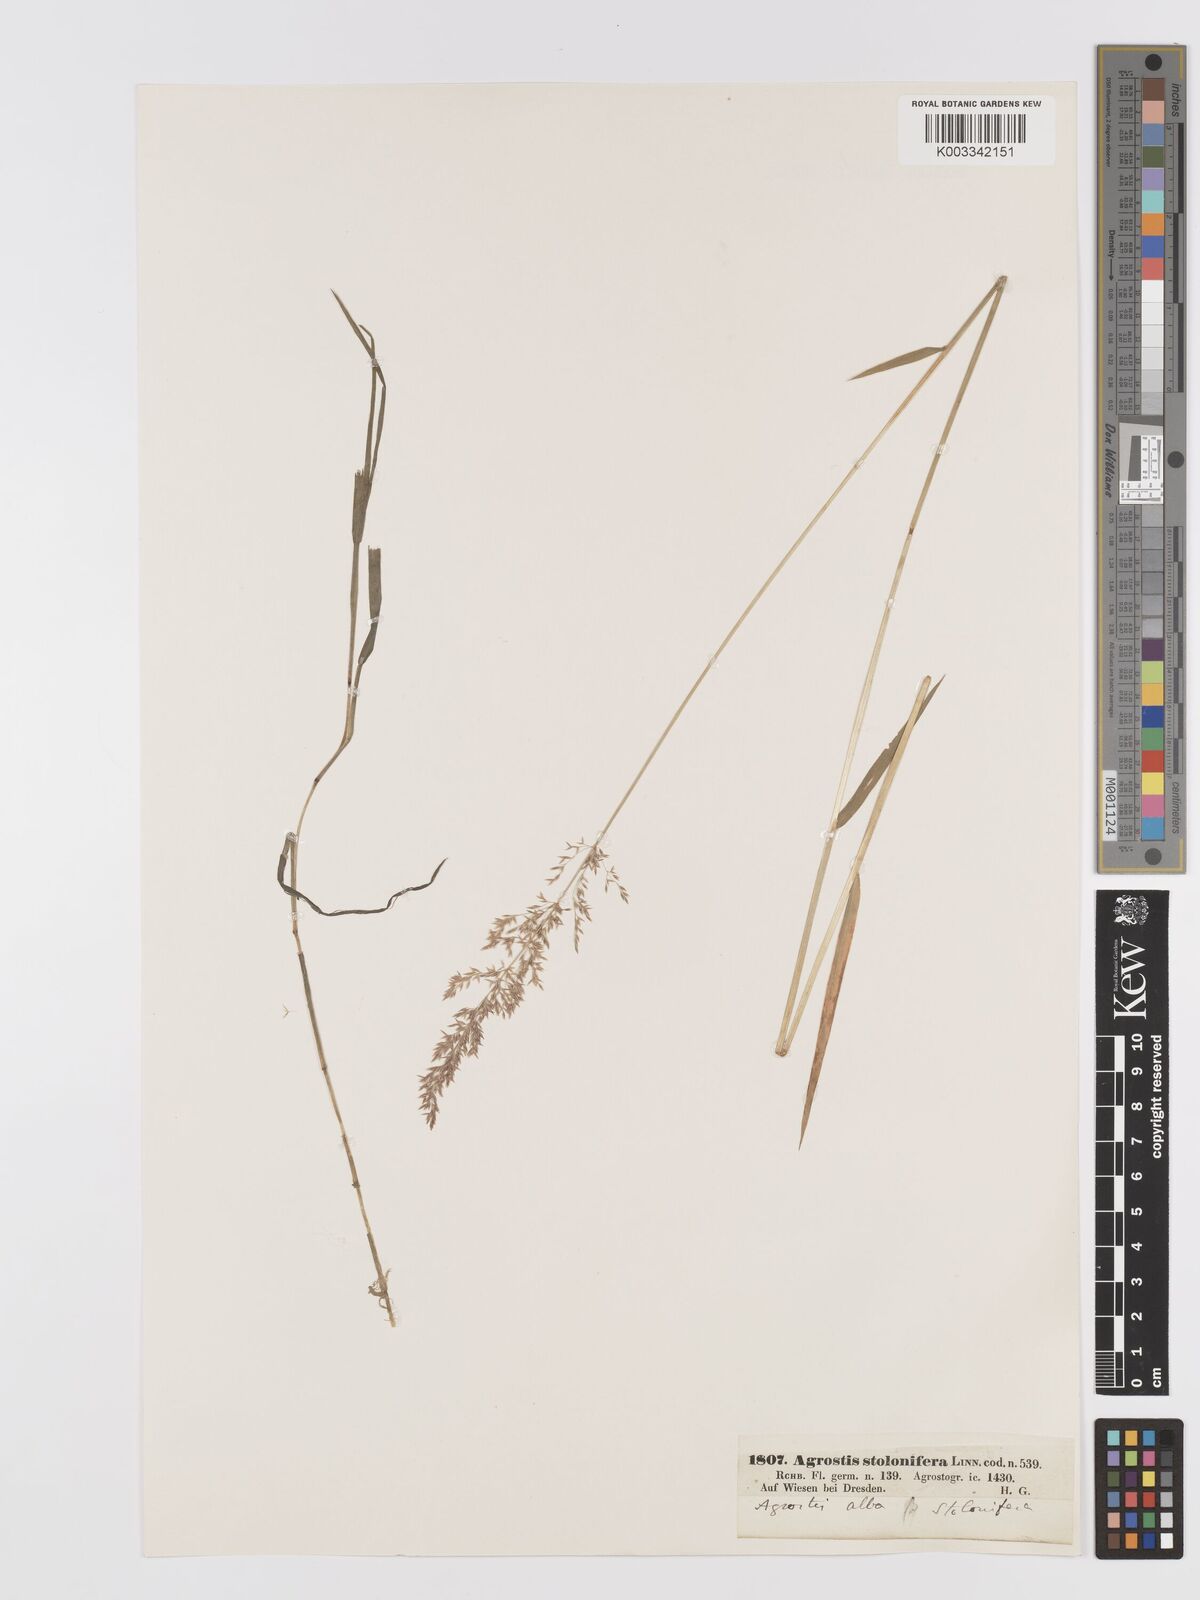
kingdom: Plantae
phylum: Tracheophyta
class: Liliopsida
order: Poales
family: Poaceae
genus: Agrostis
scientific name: Agrostis stolonifera
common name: Creeping bentgrass
